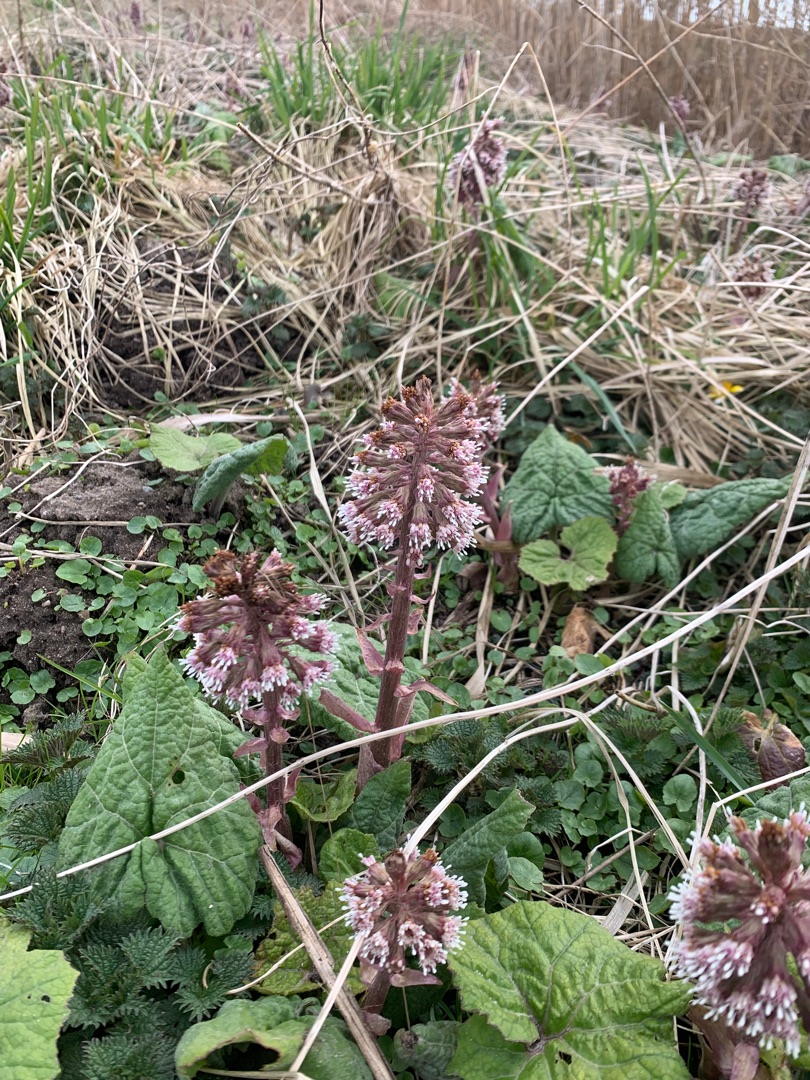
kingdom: Plantae
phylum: Tracheophyta
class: Magnoliopsida
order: Asterales
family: Asteraceae
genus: Petasites
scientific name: Petasites hybridus
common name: Rød hestehov
